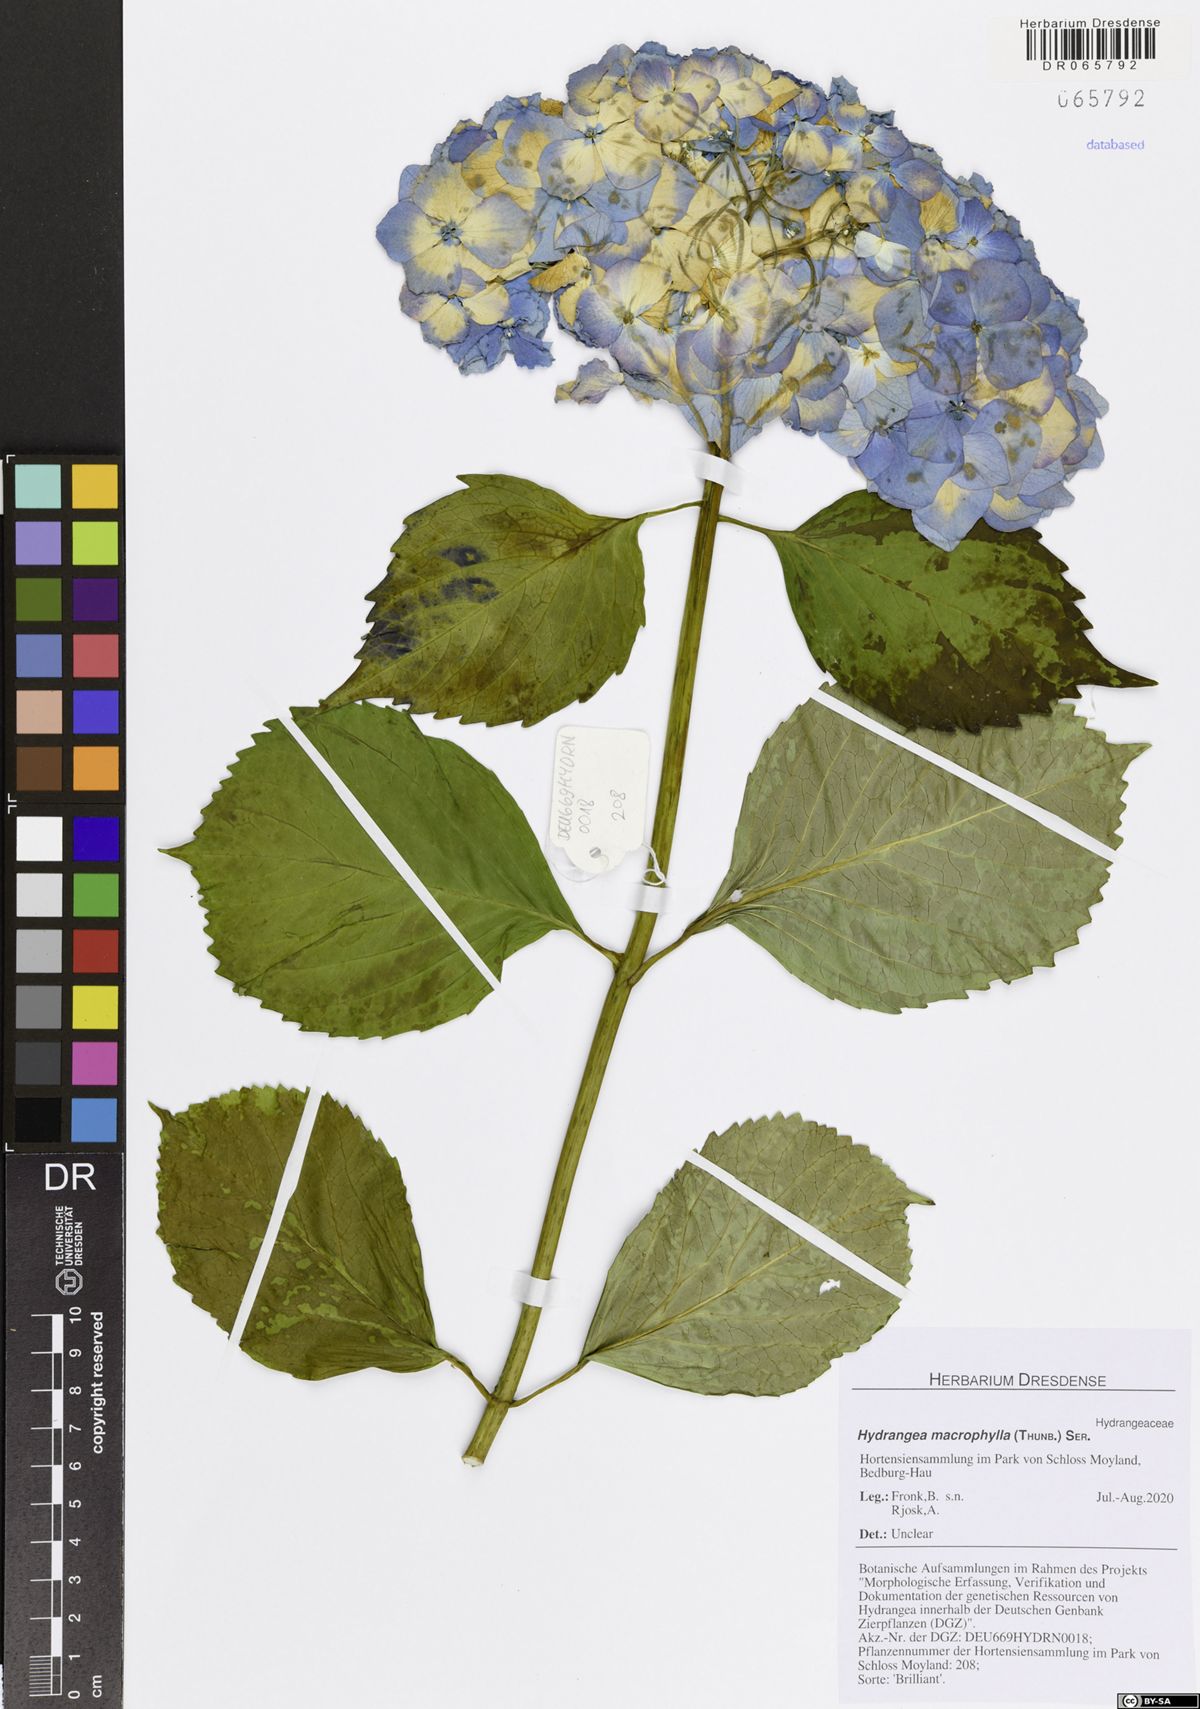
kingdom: Plantae
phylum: Tracheophyta
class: Magnoliopsida
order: Cornales
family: Hydrangeaceae
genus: Hydrangea
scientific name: Hydrangea macrophylla
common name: Hydrangea
